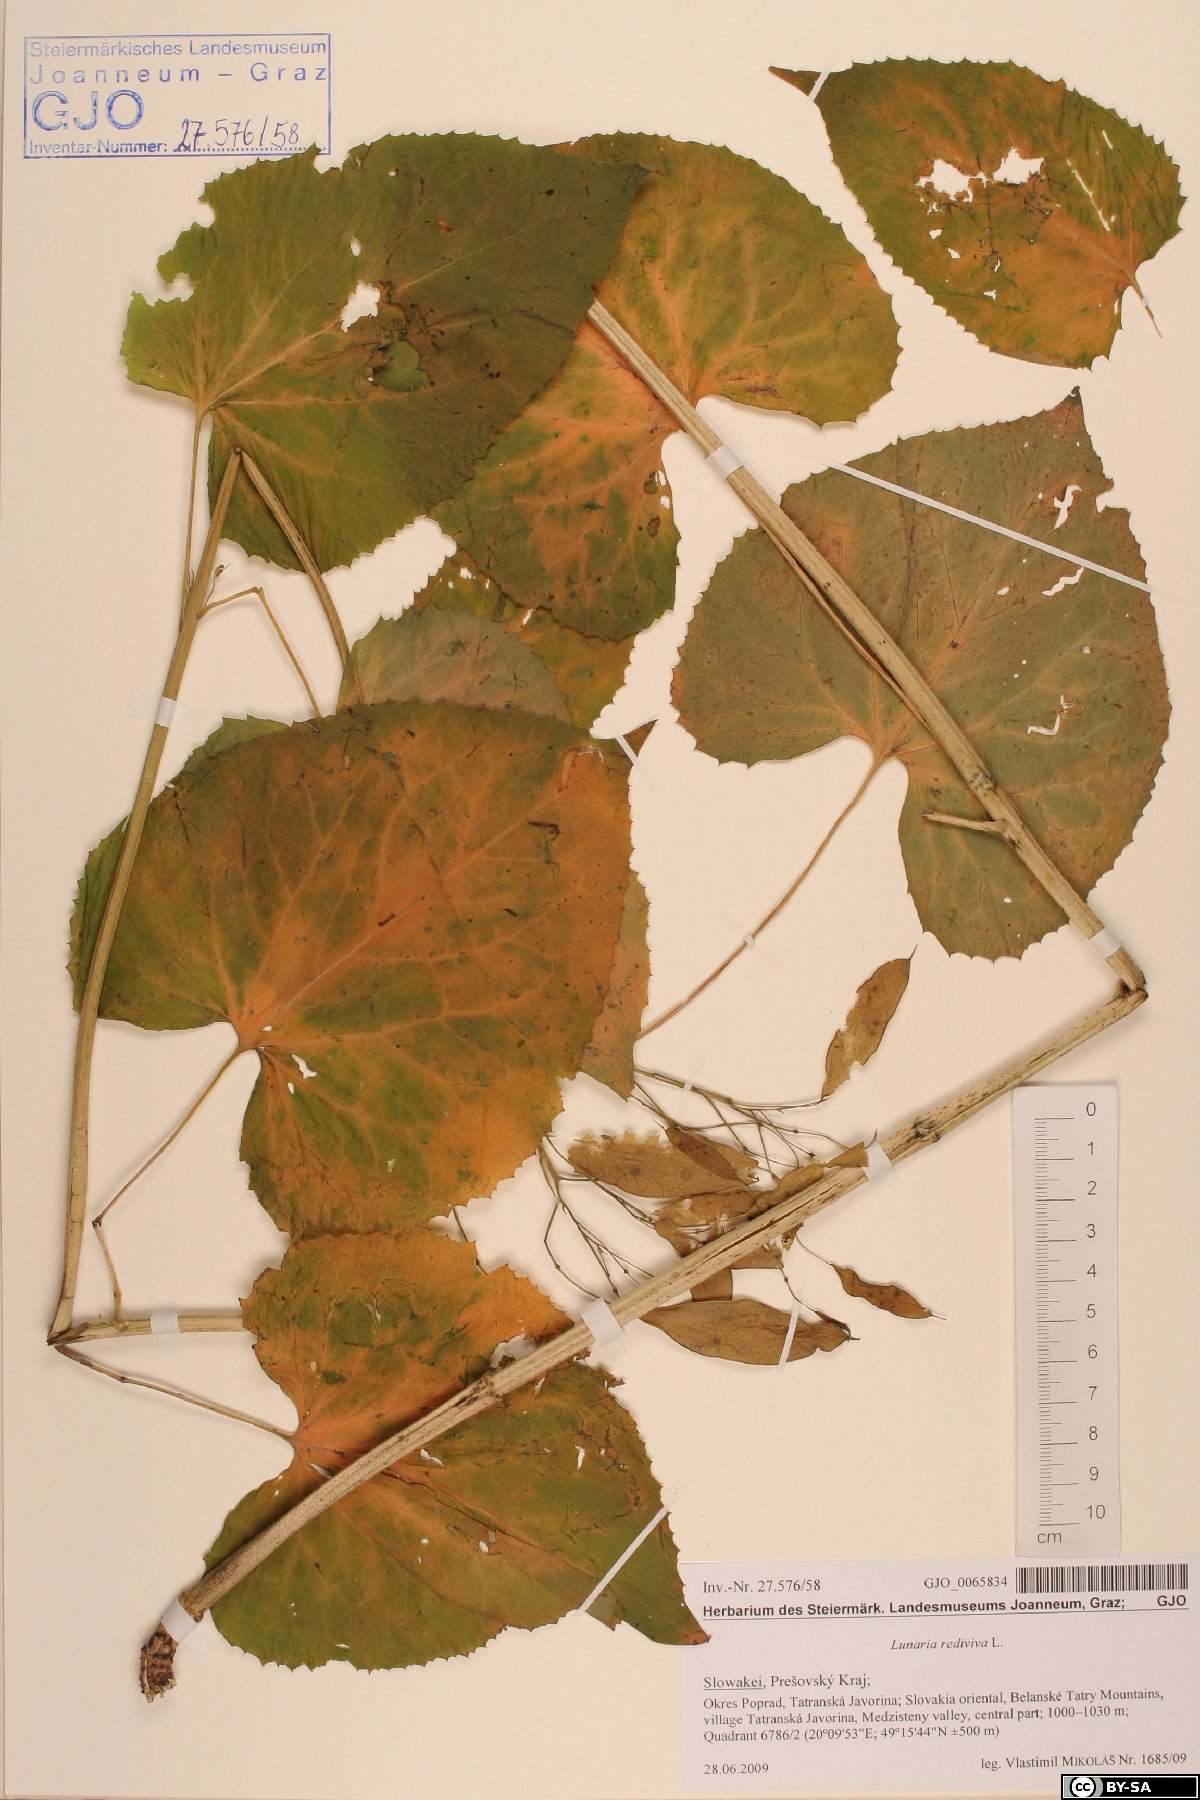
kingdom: Plantae
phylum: Tracheophyta
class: Magnoliopsida
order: Brassicales
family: Brassicaceae
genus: Lunaria
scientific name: Lunaria rediviva
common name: Perennial honesty
